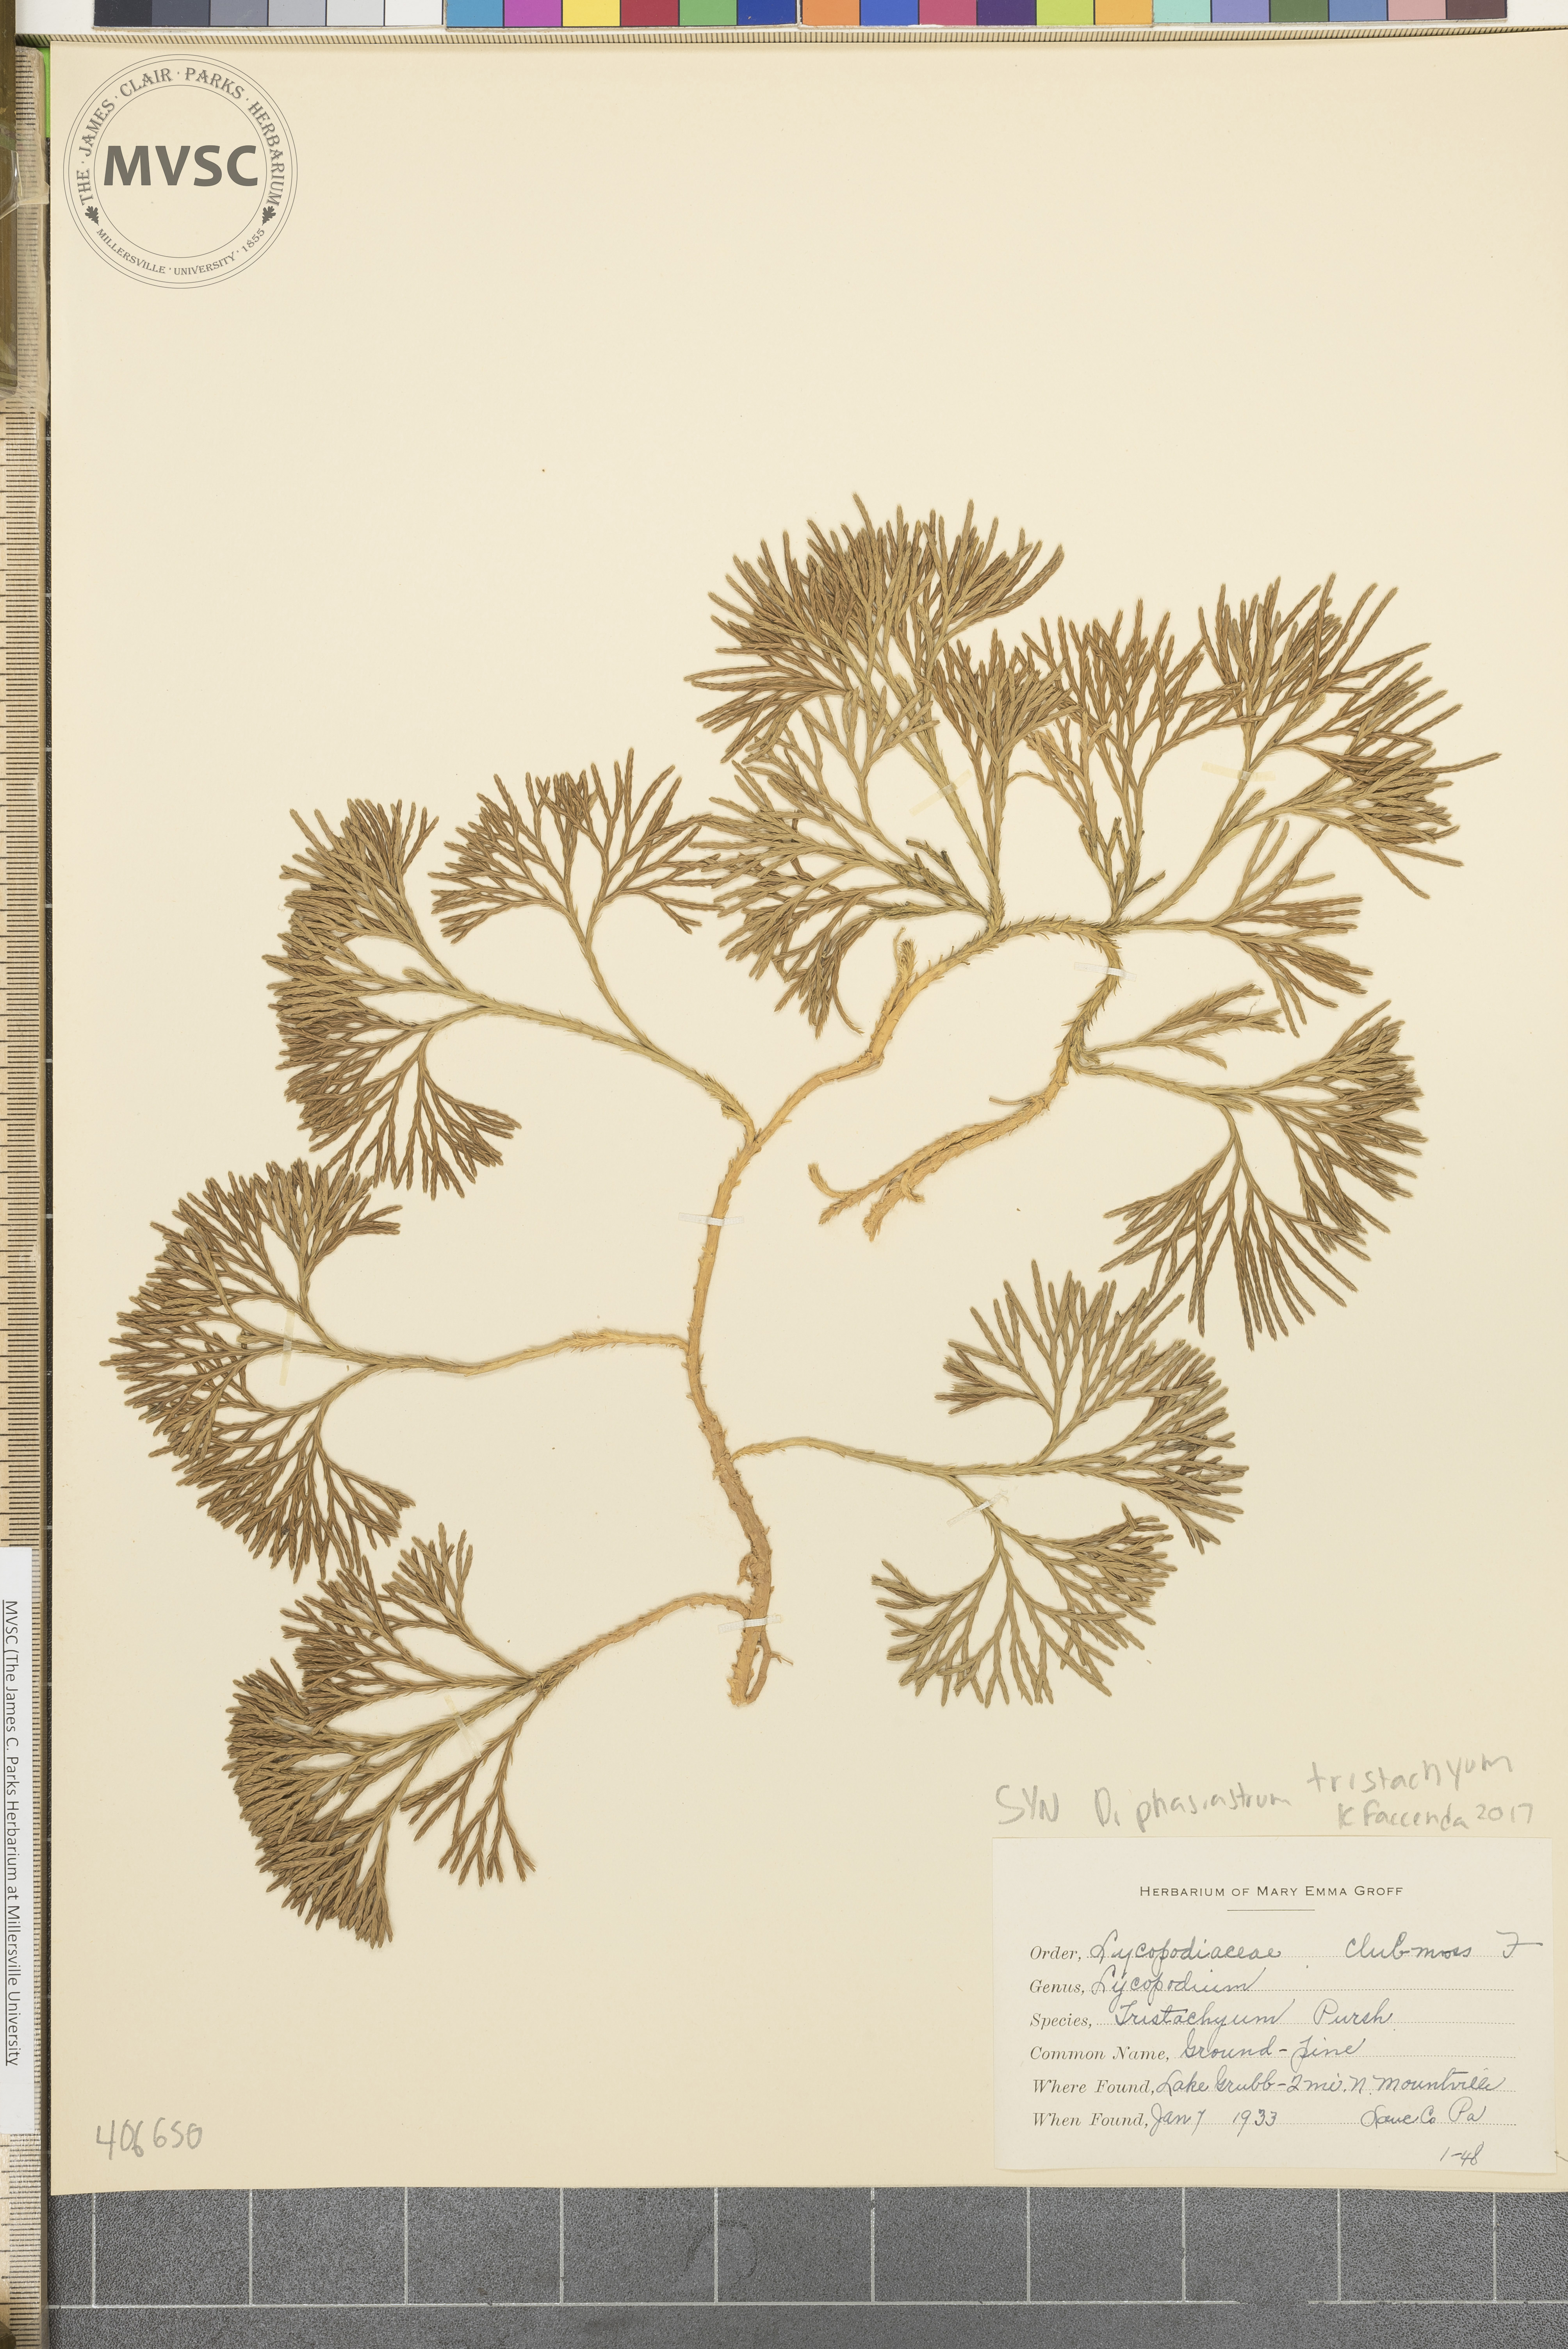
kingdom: Plantae
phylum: Tracheophyta
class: Lycopodiopsida
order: Lycopodiales
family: Lycopodiaceae
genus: Diphasiastrum
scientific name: Diphasiastrum tristachyum
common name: Blue ground-cedar
